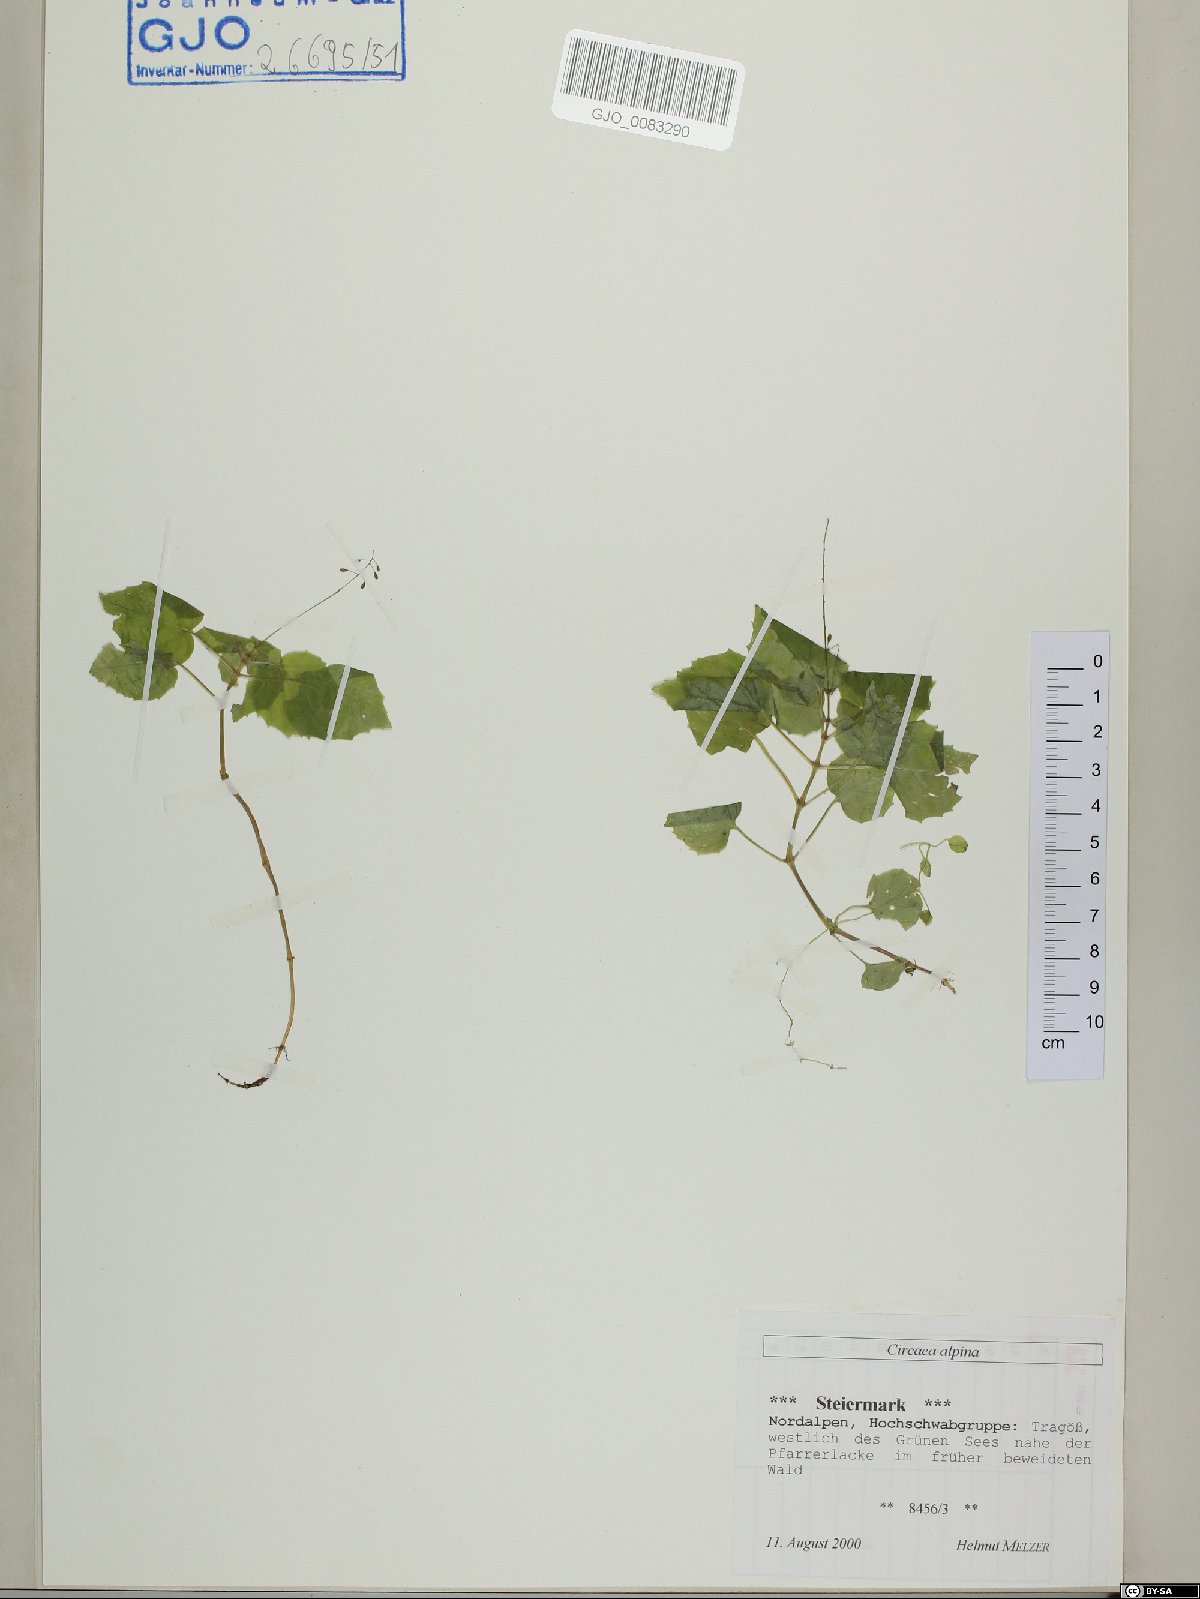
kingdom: Plantae
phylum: Tracheophyta
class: Magnoliopsida
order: Myrtales
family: Onagraceae
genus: Circaea
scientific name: Circaea alpina
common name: Alpine enchanter's-nightshade
